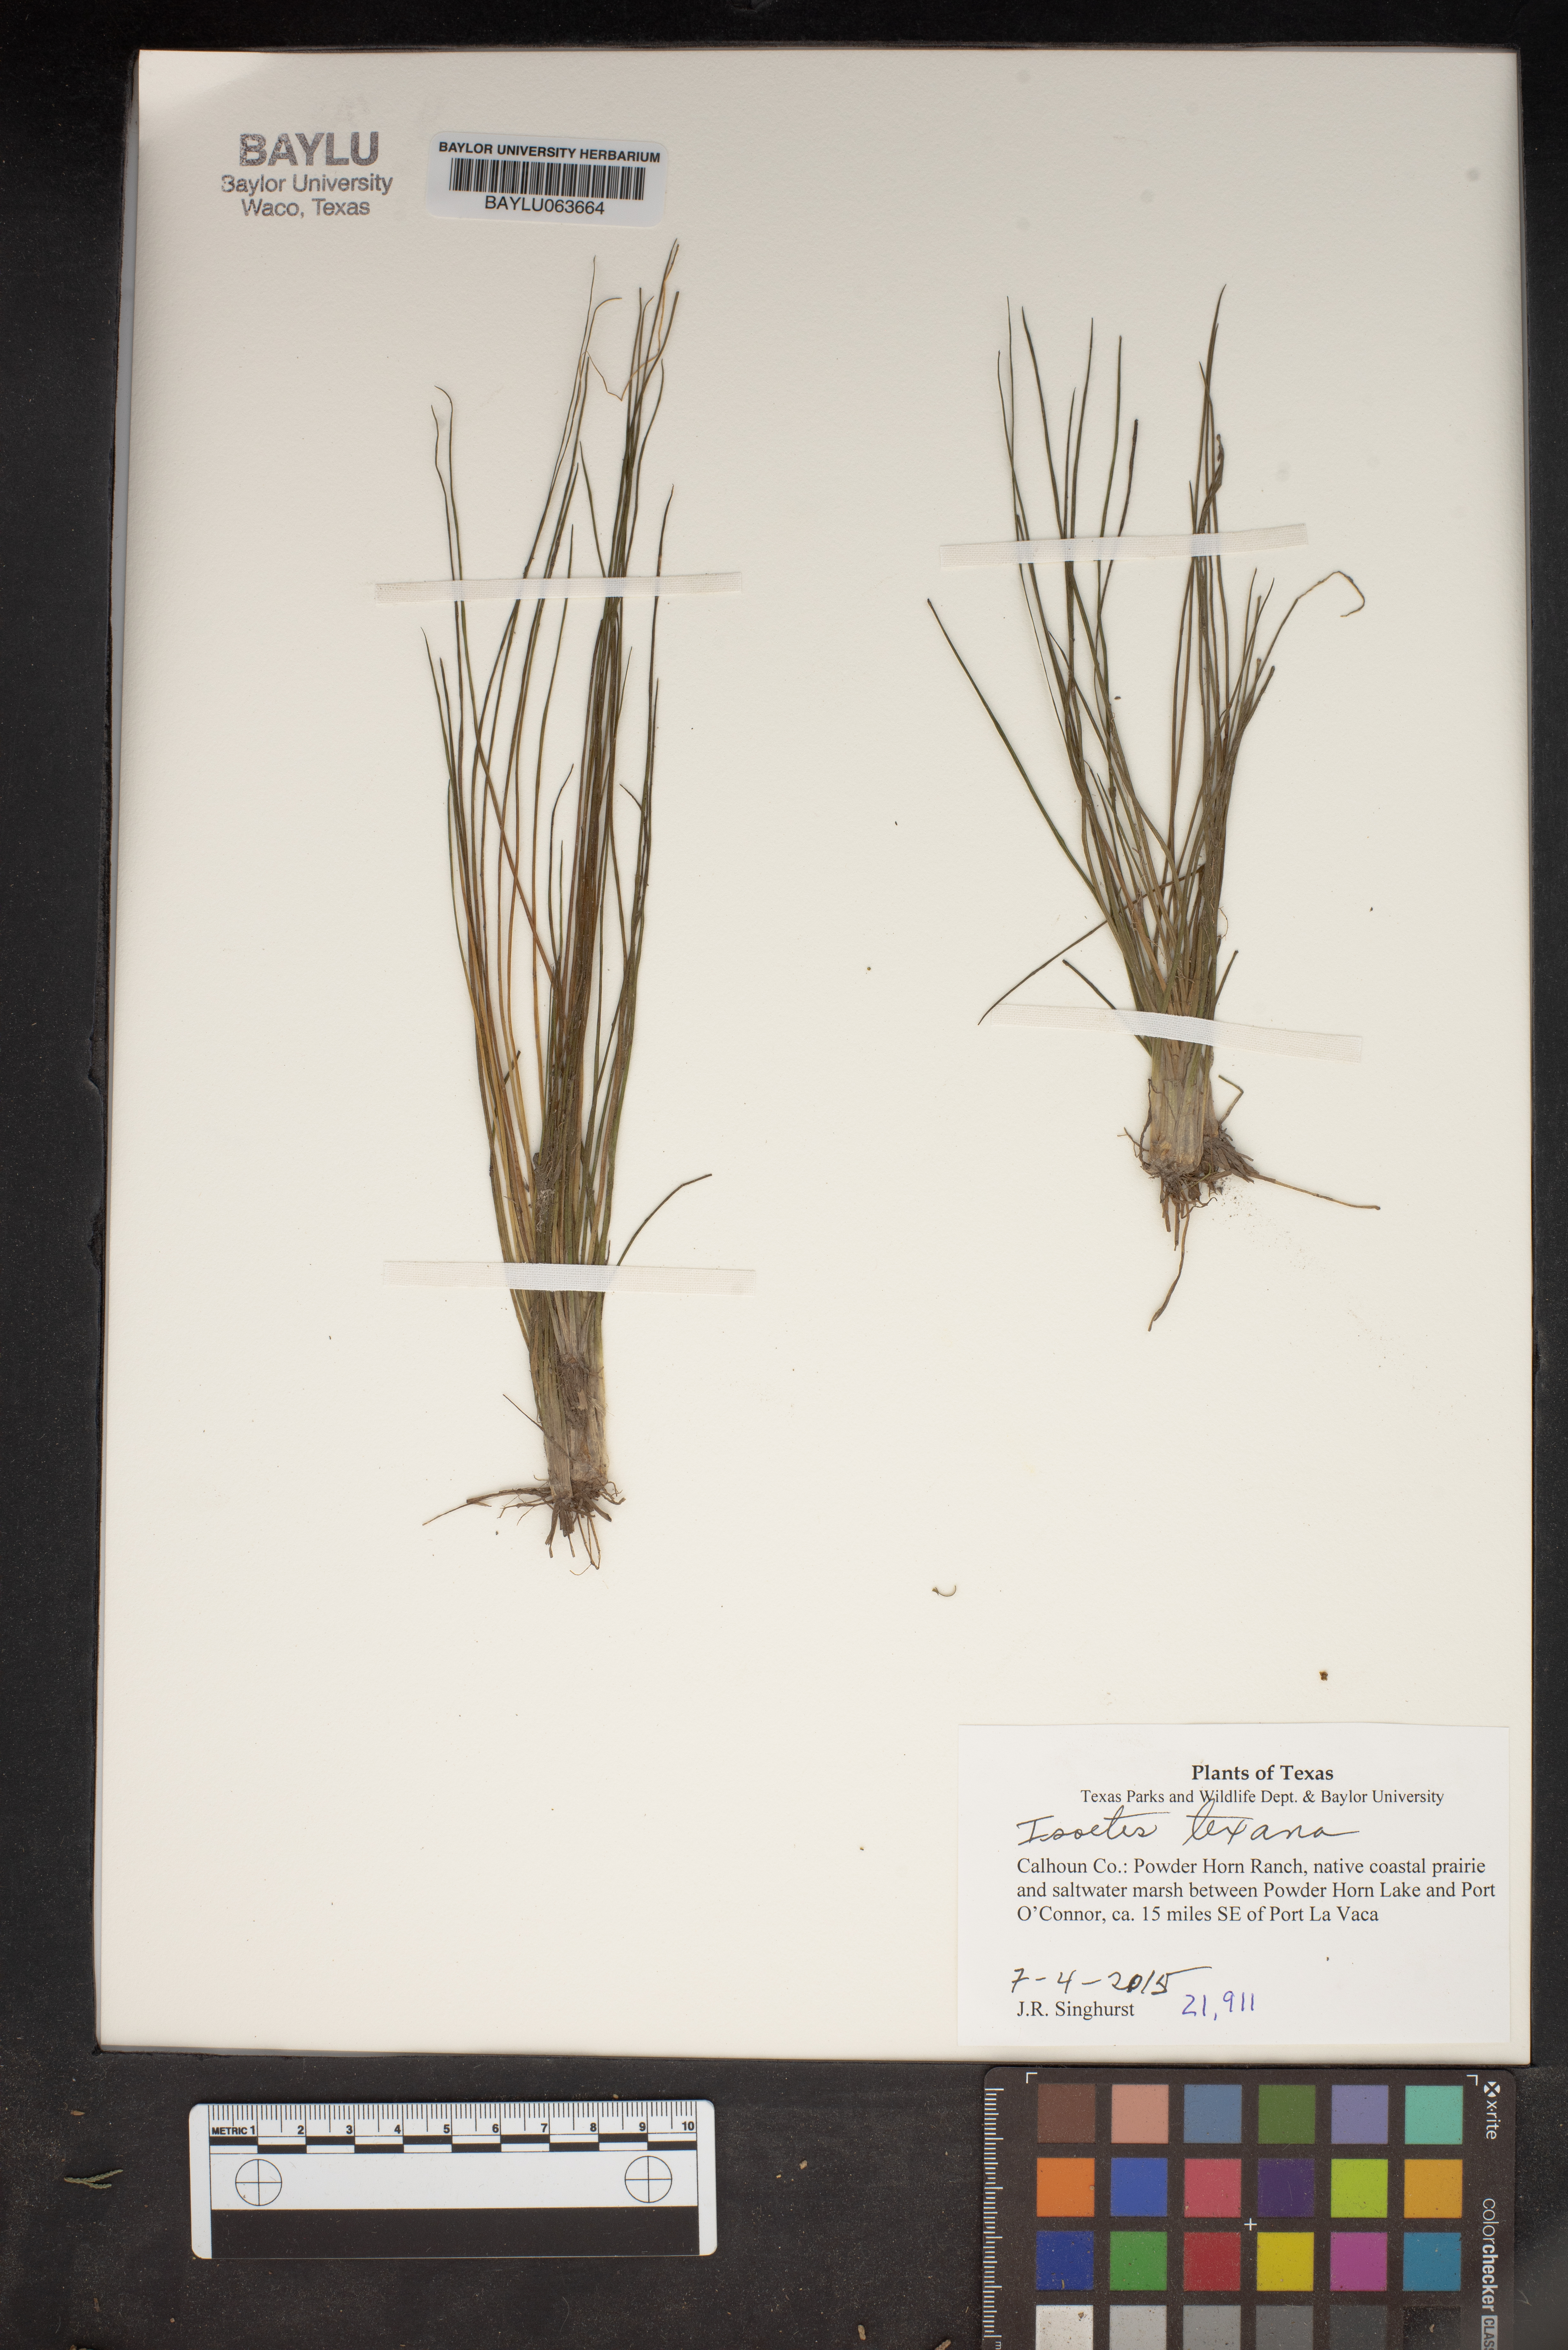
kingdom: Plantae
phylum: Tracheophyta
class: Lycopodiopsida
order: Isoetales
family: Isoetaceae
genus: Isoetes
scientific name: Isoetes texana
